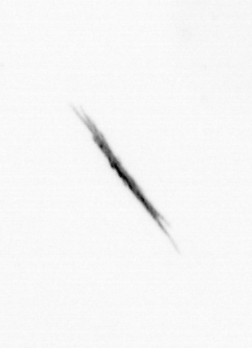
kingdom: Bacteria
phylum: Cyanobacteria
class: Cyanobacteriia
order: Cyanobacteriales
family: Microcoleaceae
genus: Trichodesmium
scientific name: Trichodesmium
